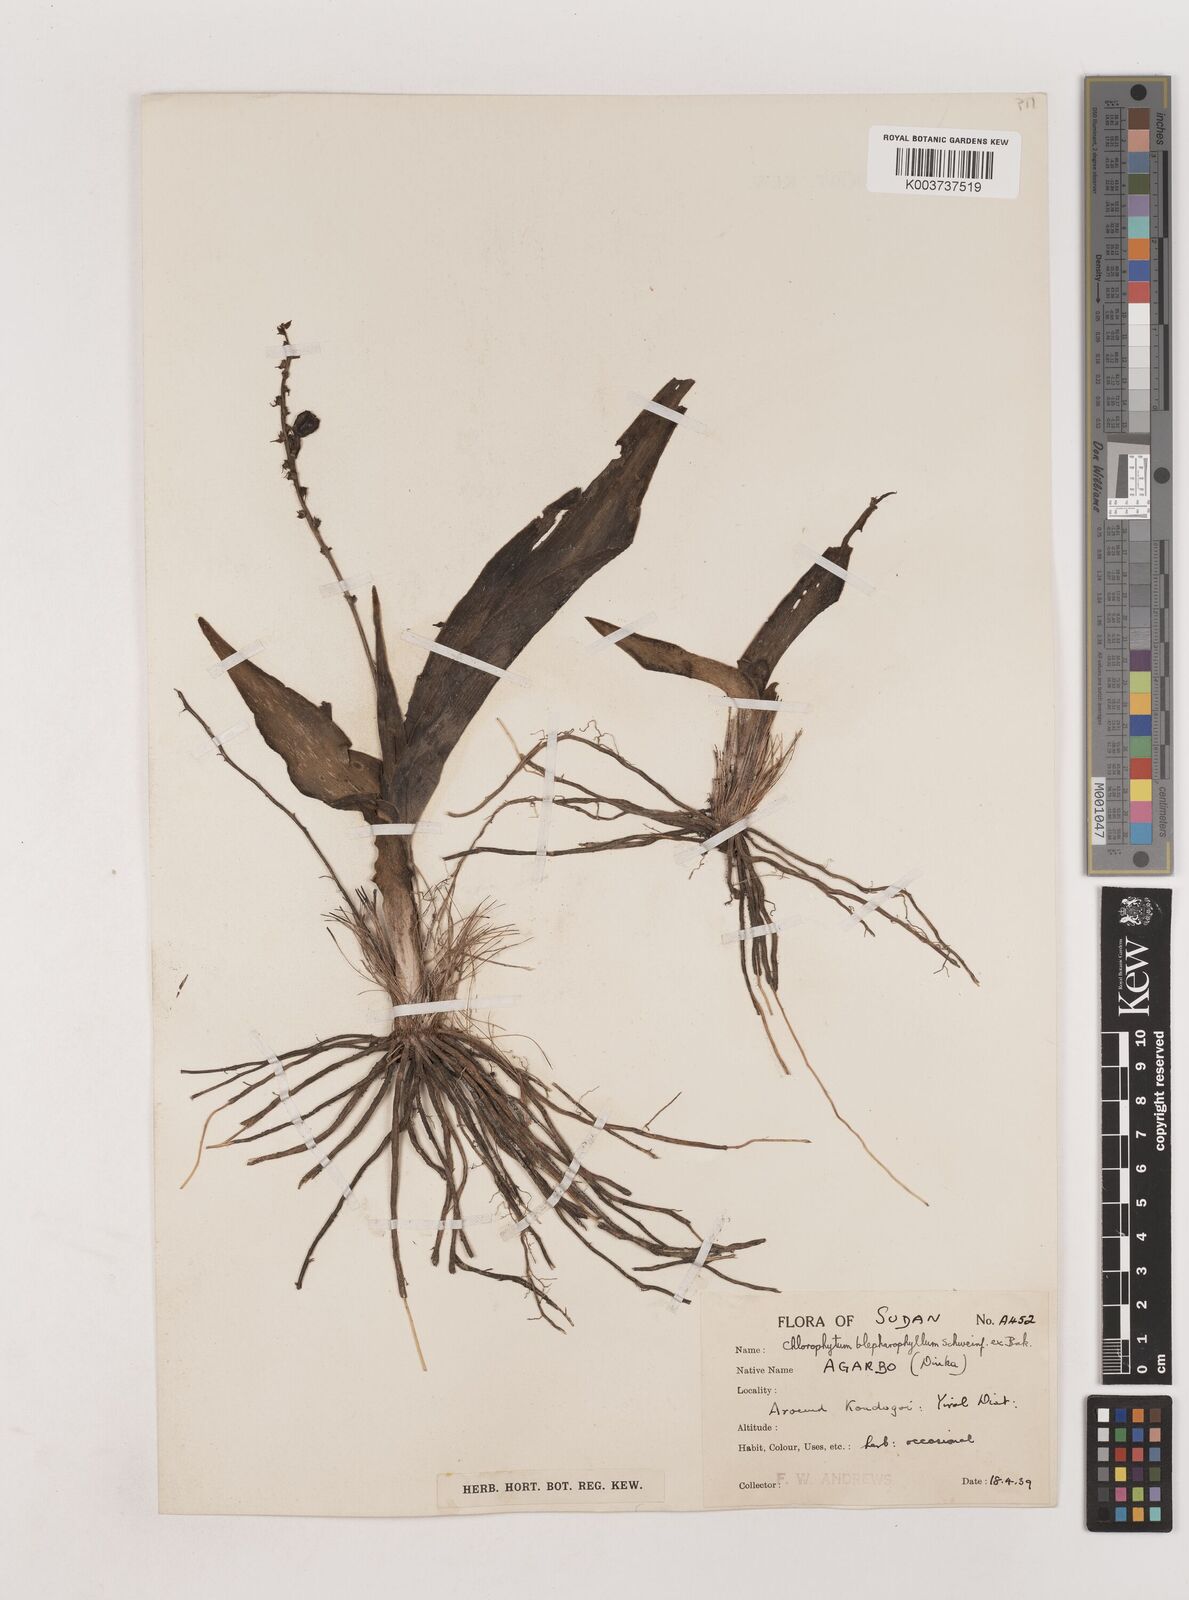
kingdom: Plantae
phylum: Tracheophyta
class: Liliopsida
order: Asparagales
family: Asparagaceae
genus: Chlorophytum
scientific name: Chlorophytum blepharophyllum
